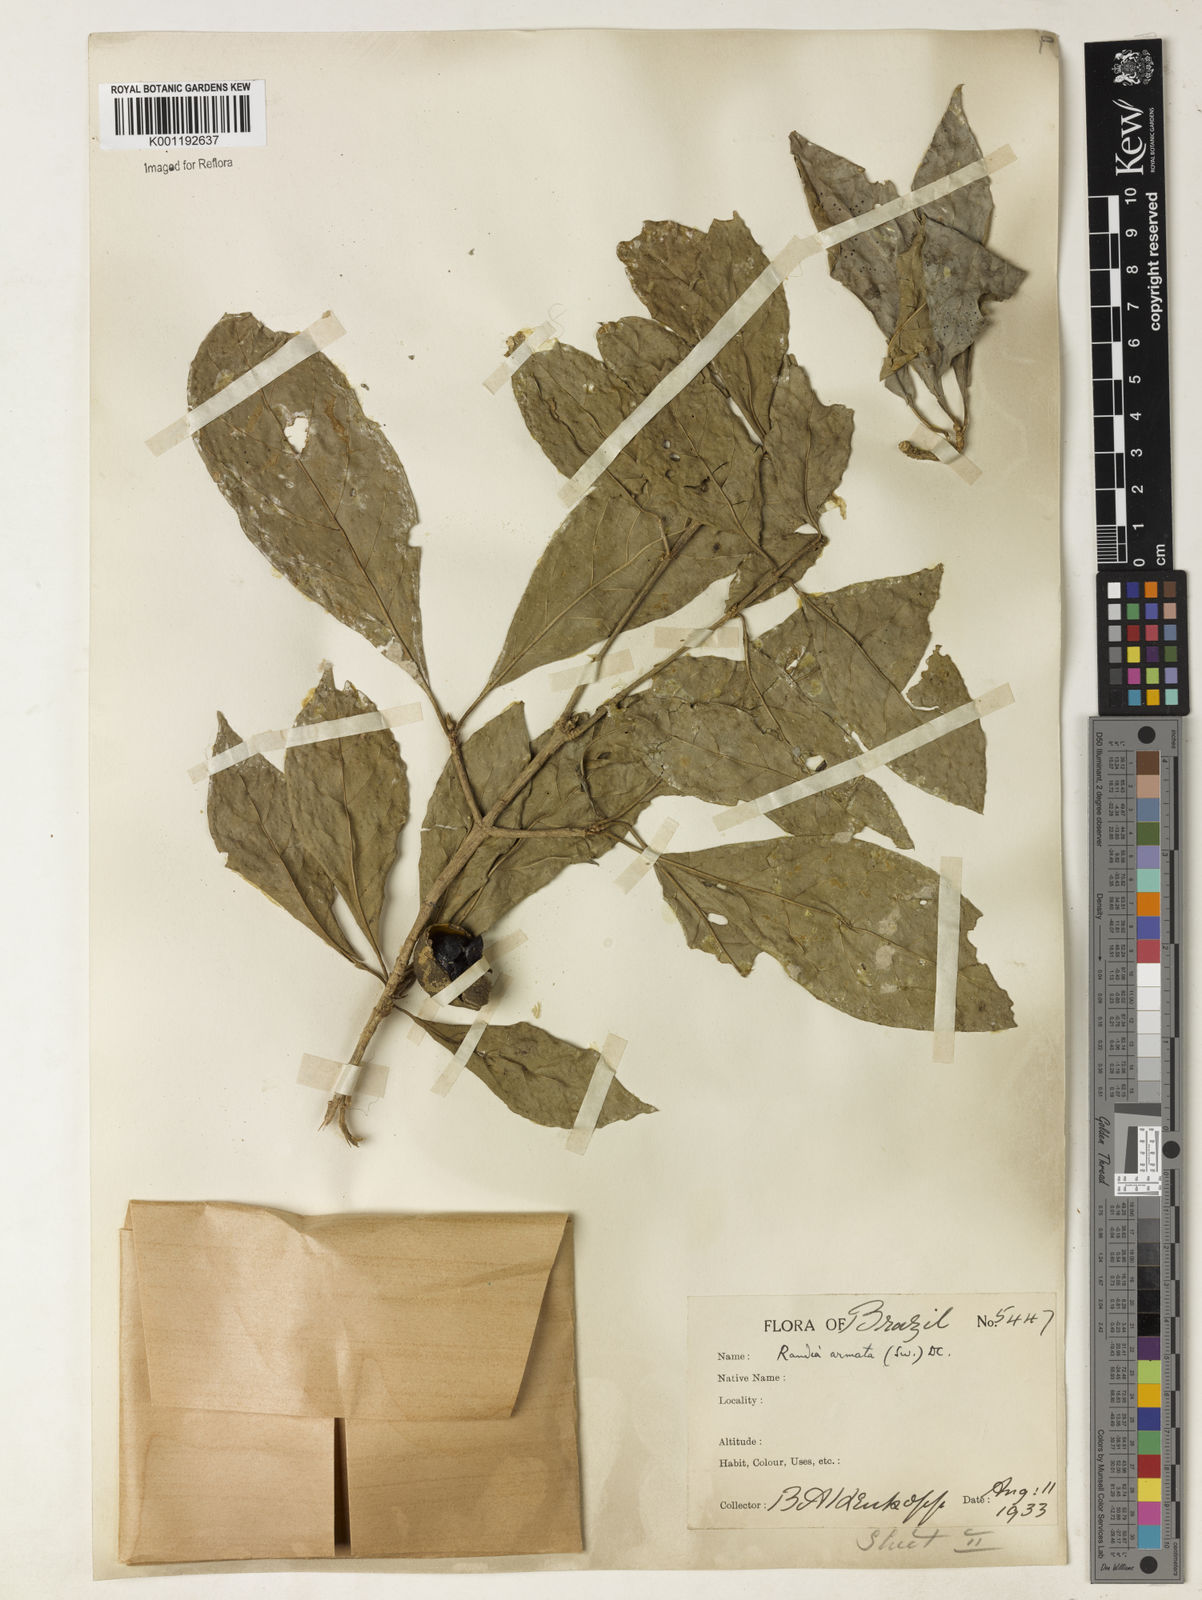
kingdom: Plantae
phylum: Tracheophyta
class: Magnoliopsida
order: Gentianales
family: Rubiaceae
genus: Randia
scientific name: Randia armata
